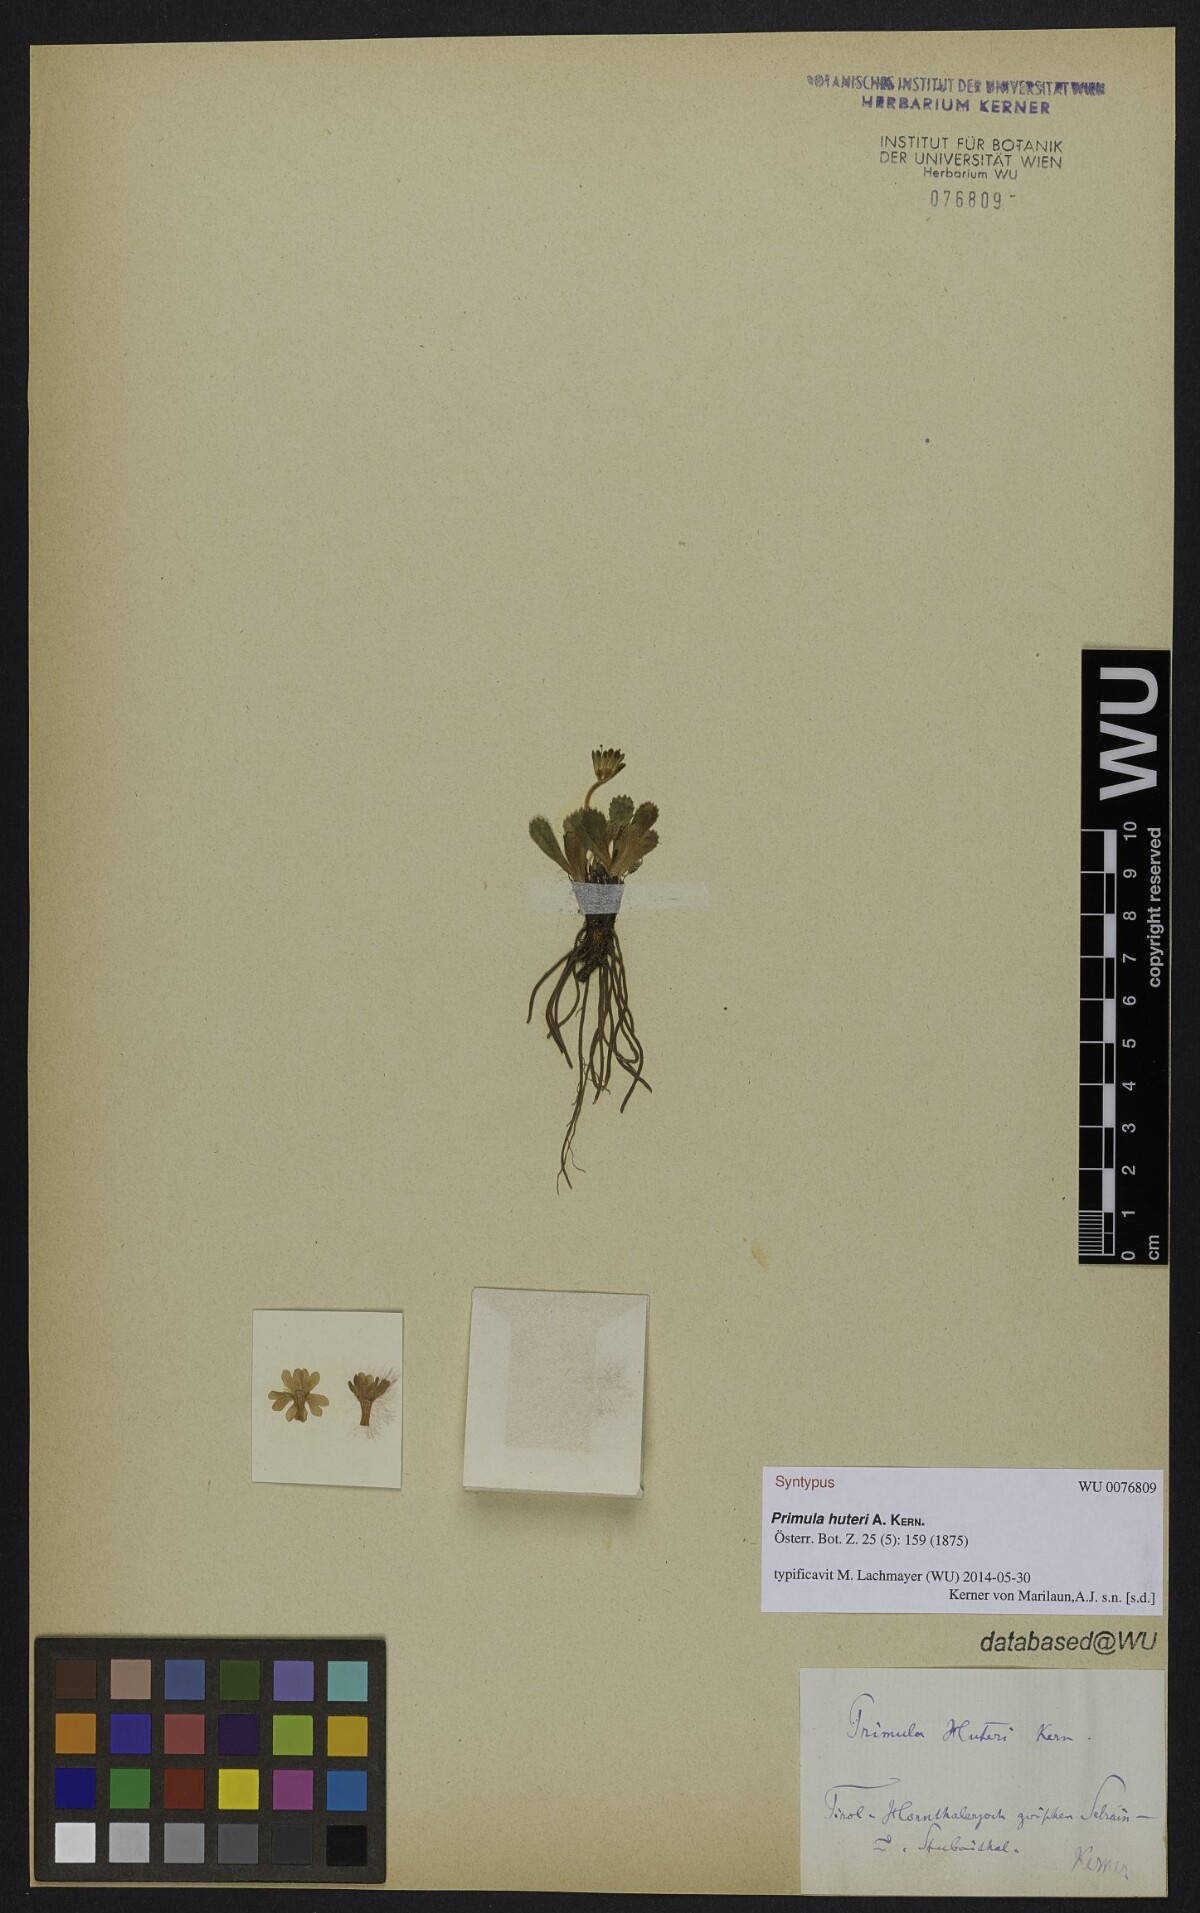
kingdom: Plantae
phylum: Tracheophyta
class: Magnoliopsida
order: Ericales
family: Primulaceae
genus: Primula
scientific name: Primula floerkeana
